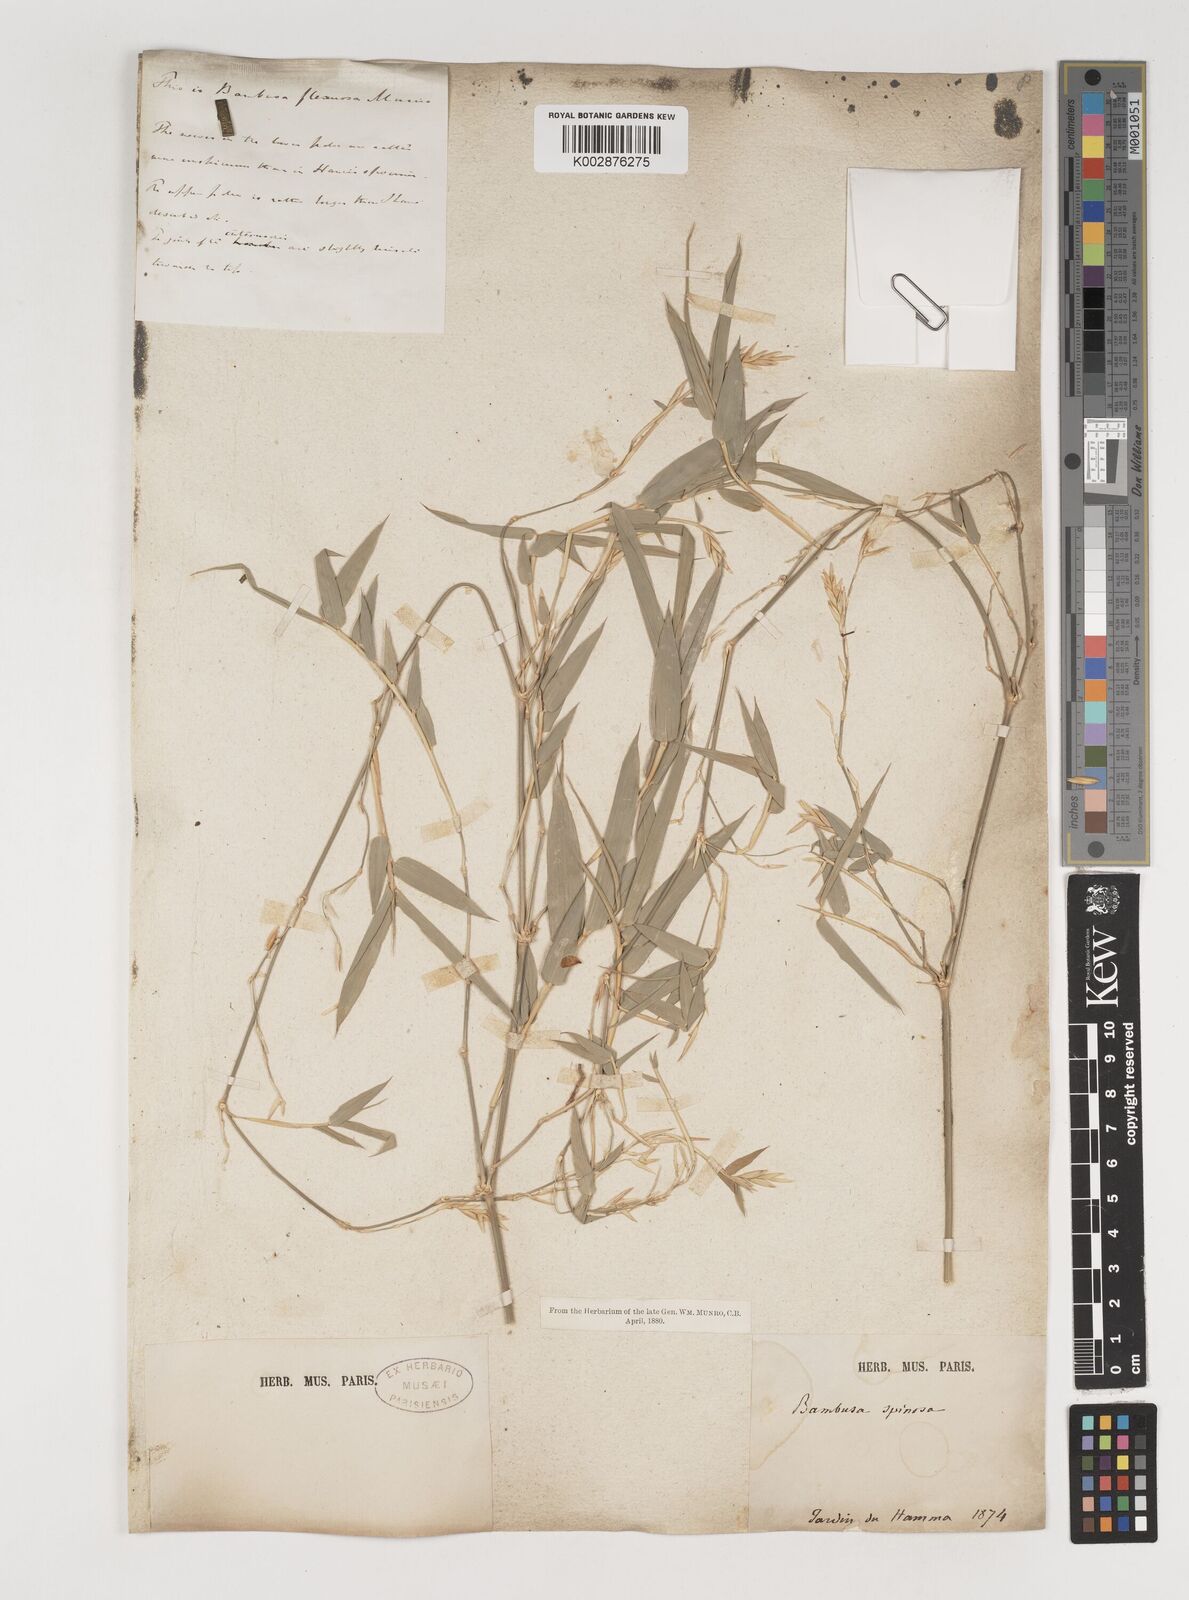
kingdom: Plantae
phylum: Tracheophyta
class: Liliopsida
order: Poales
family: Poaceae
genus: Bambusa
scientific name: Bambusa bambos
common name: Indian thorny bamboo
